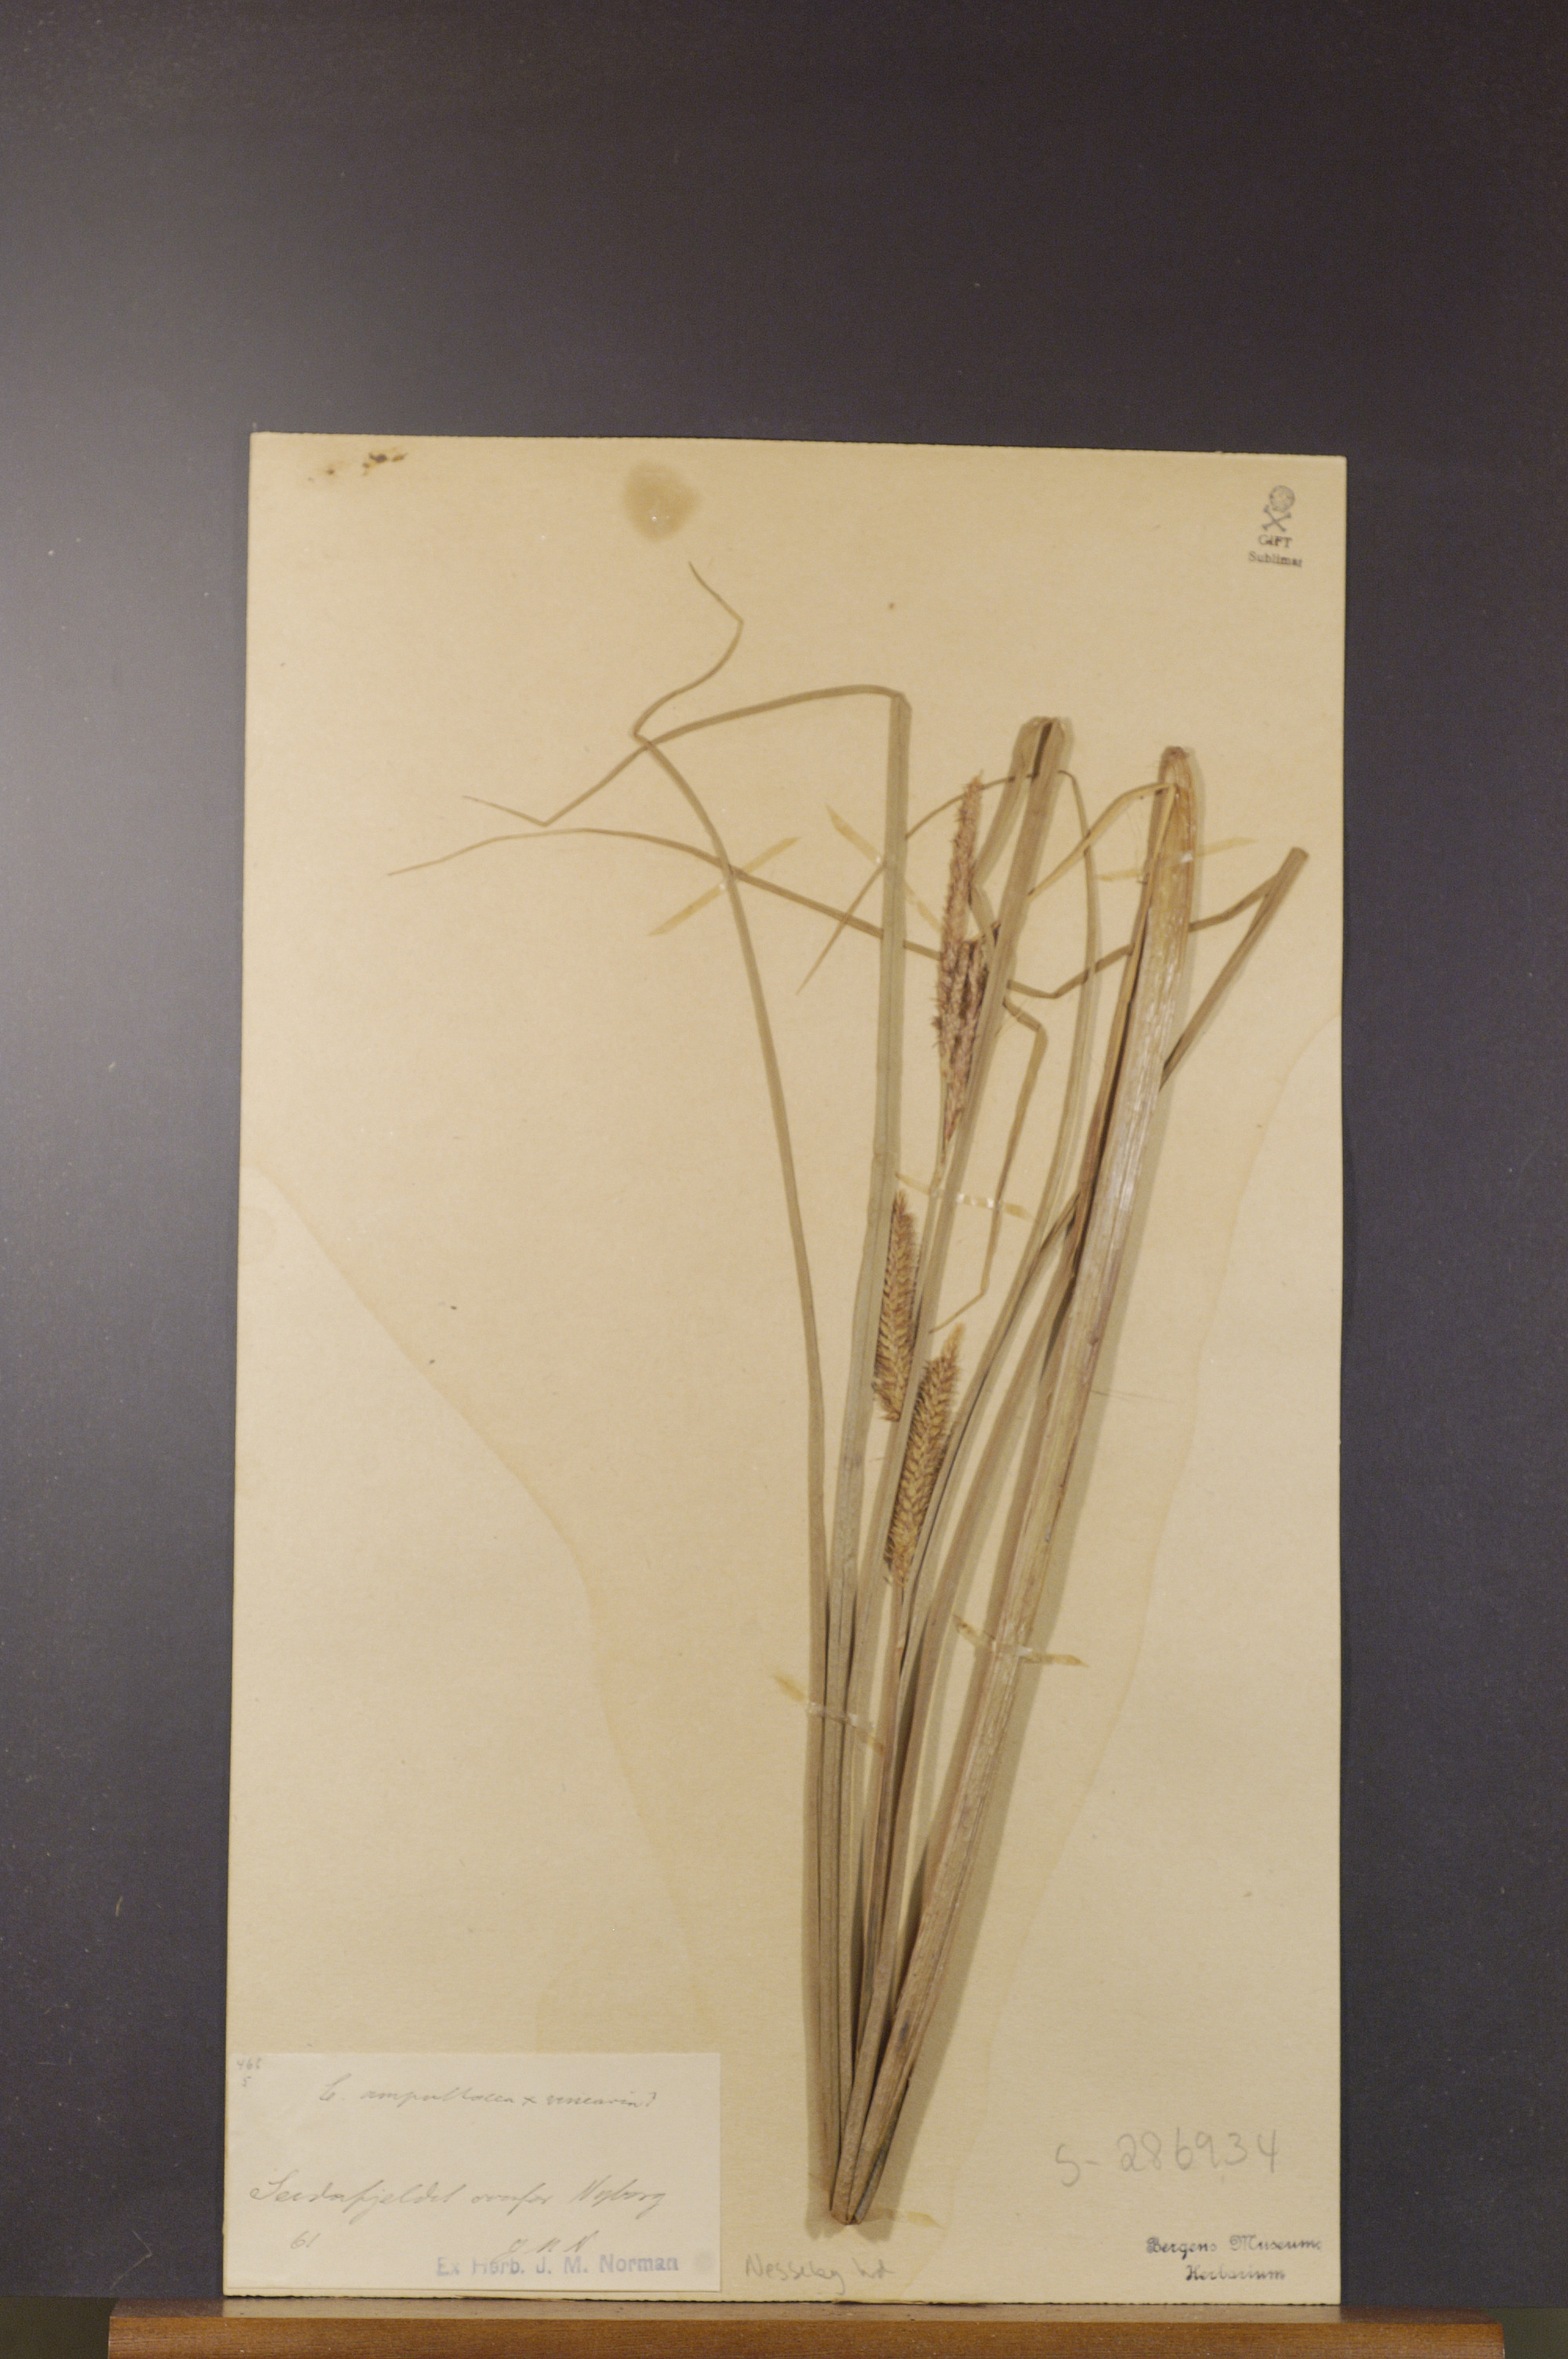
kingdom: Plantae
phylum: Tracheophyta
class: Liliopsida
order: Poales
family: Cyperaceae
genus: Carex
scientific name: Carex rostrata
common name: Bottle sedge
